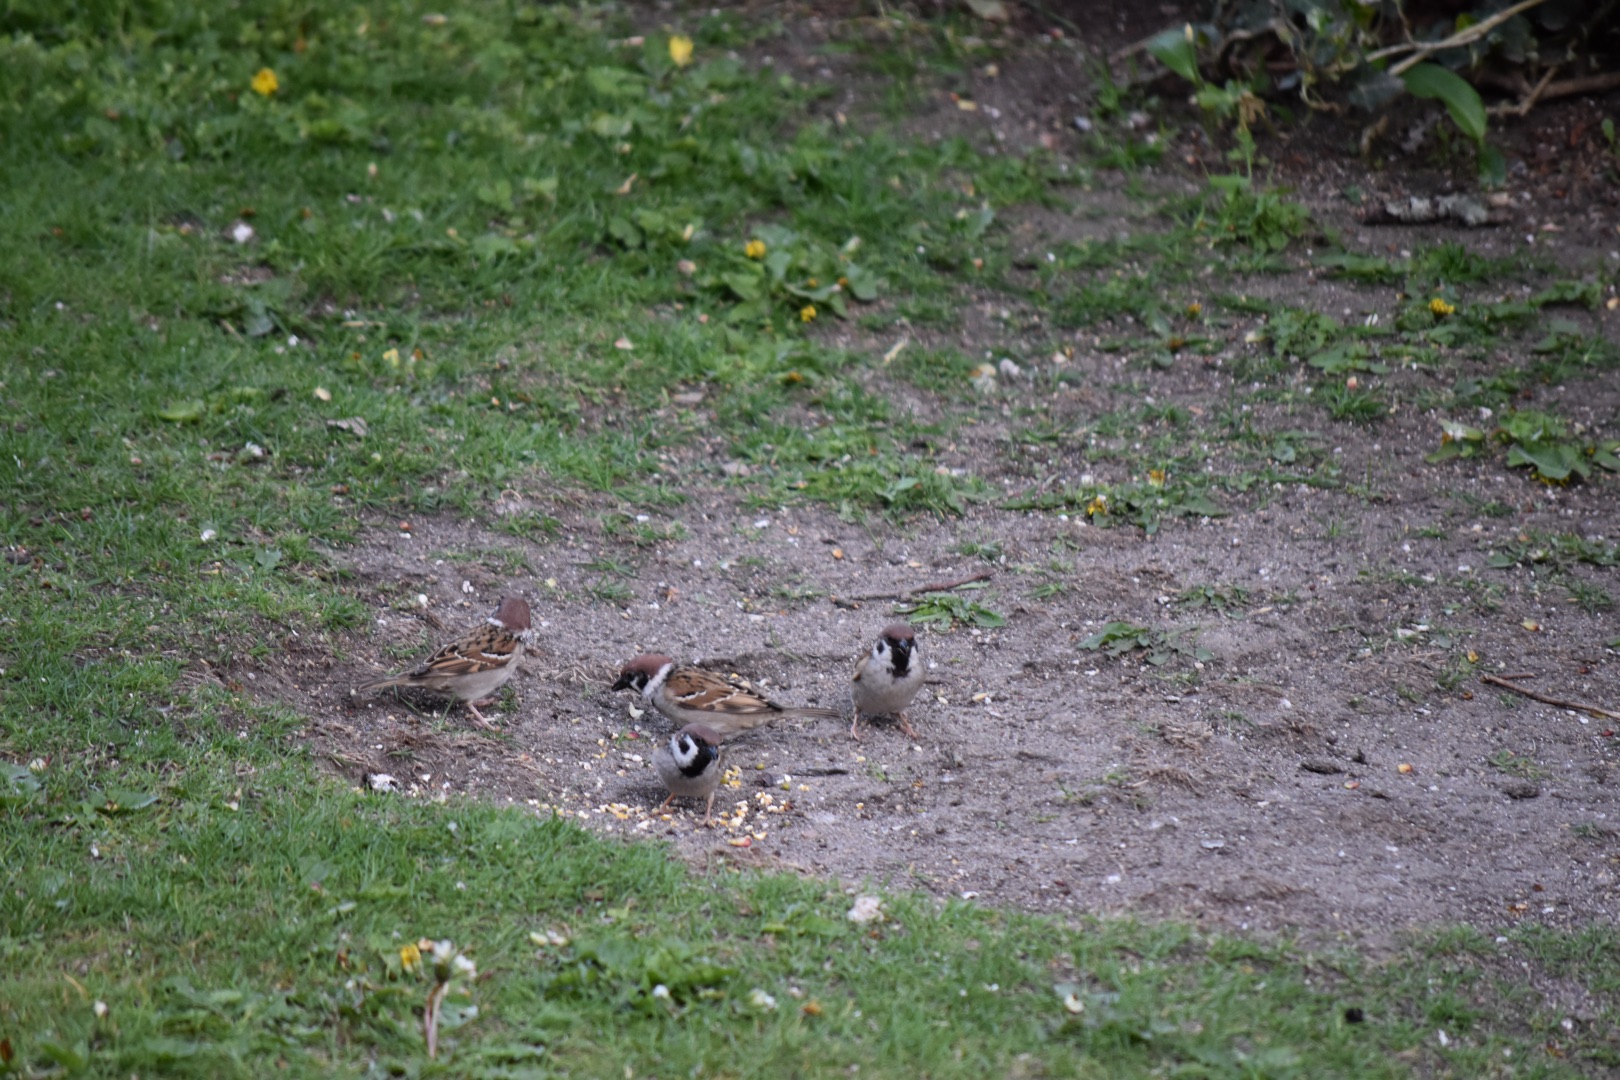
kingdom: Animalia
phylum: Chordata
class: Aves
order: Passeriformes
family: Passeridae
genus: Passer
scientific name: Passer montanus
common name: Skovspurv
